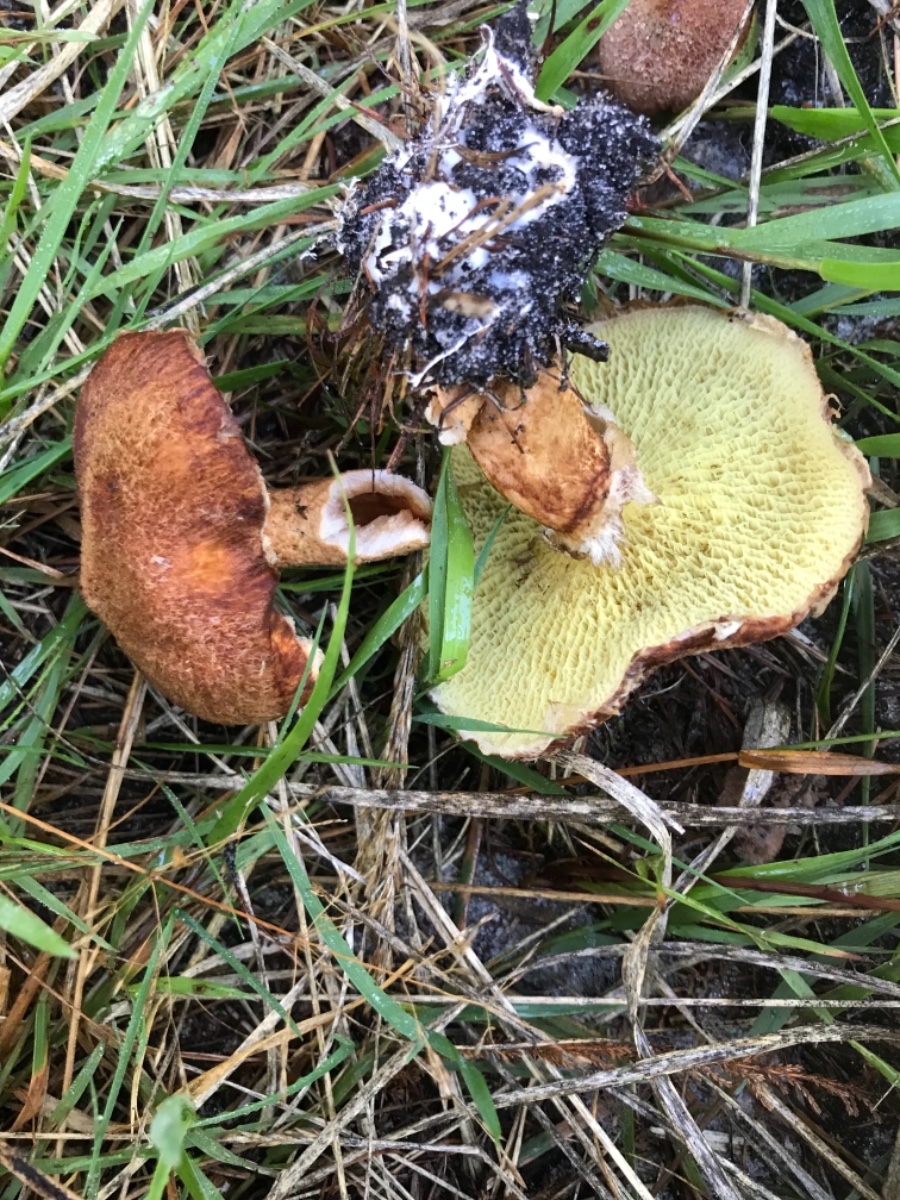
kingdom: Fungi
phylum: Basidiomycota
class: Agaricomycetes
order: Boletales
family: Suillaceae
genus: Suillus
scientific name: Suillus cavipes
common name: hulstokket slimrørhat
